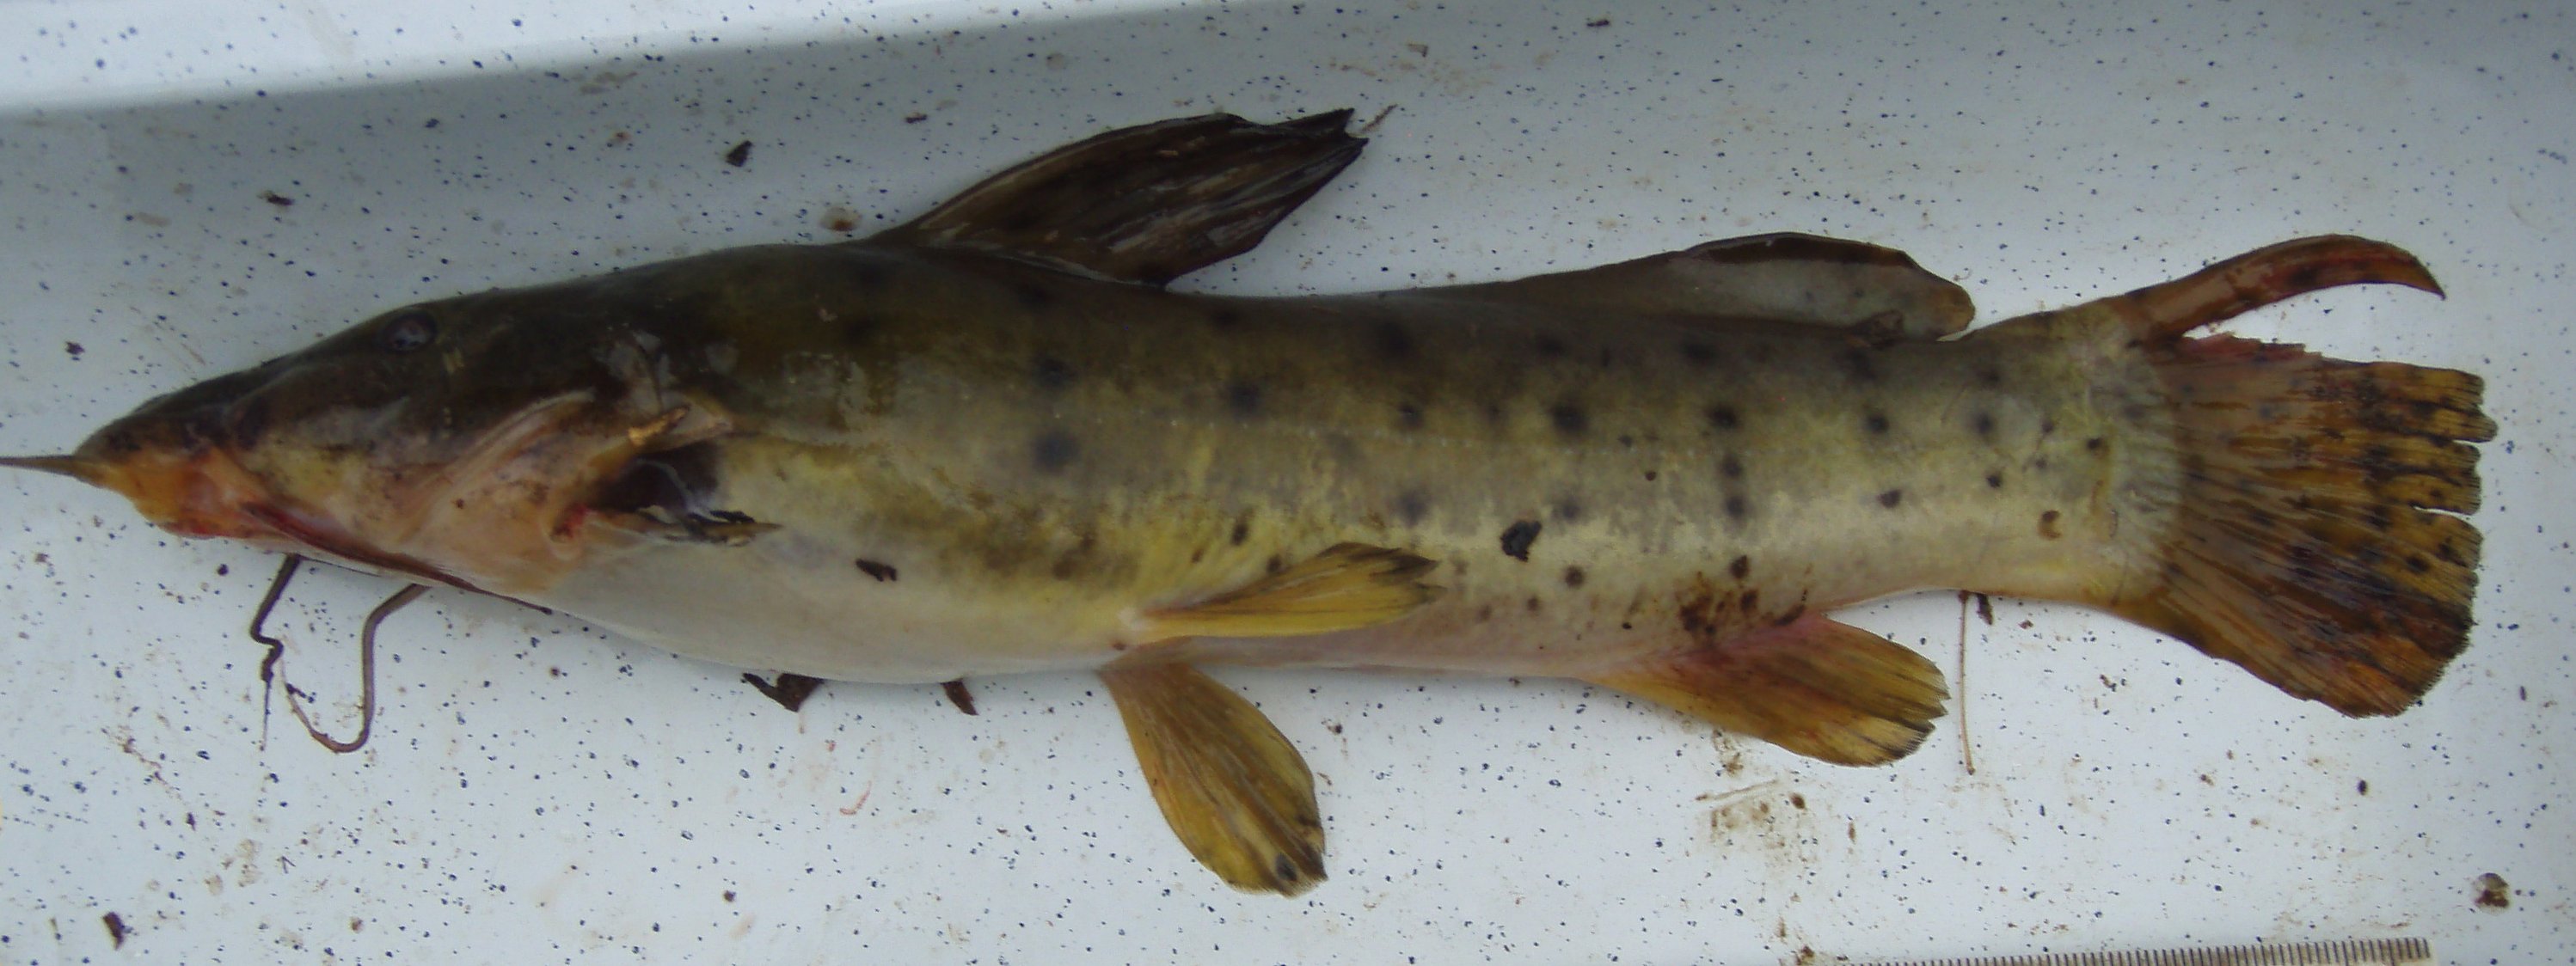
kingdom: Animalia
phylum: Chordata
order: Siluriformes
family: Claroteidae
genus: Parauchenoglanis
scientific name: Parauchenoglanis punctatus
